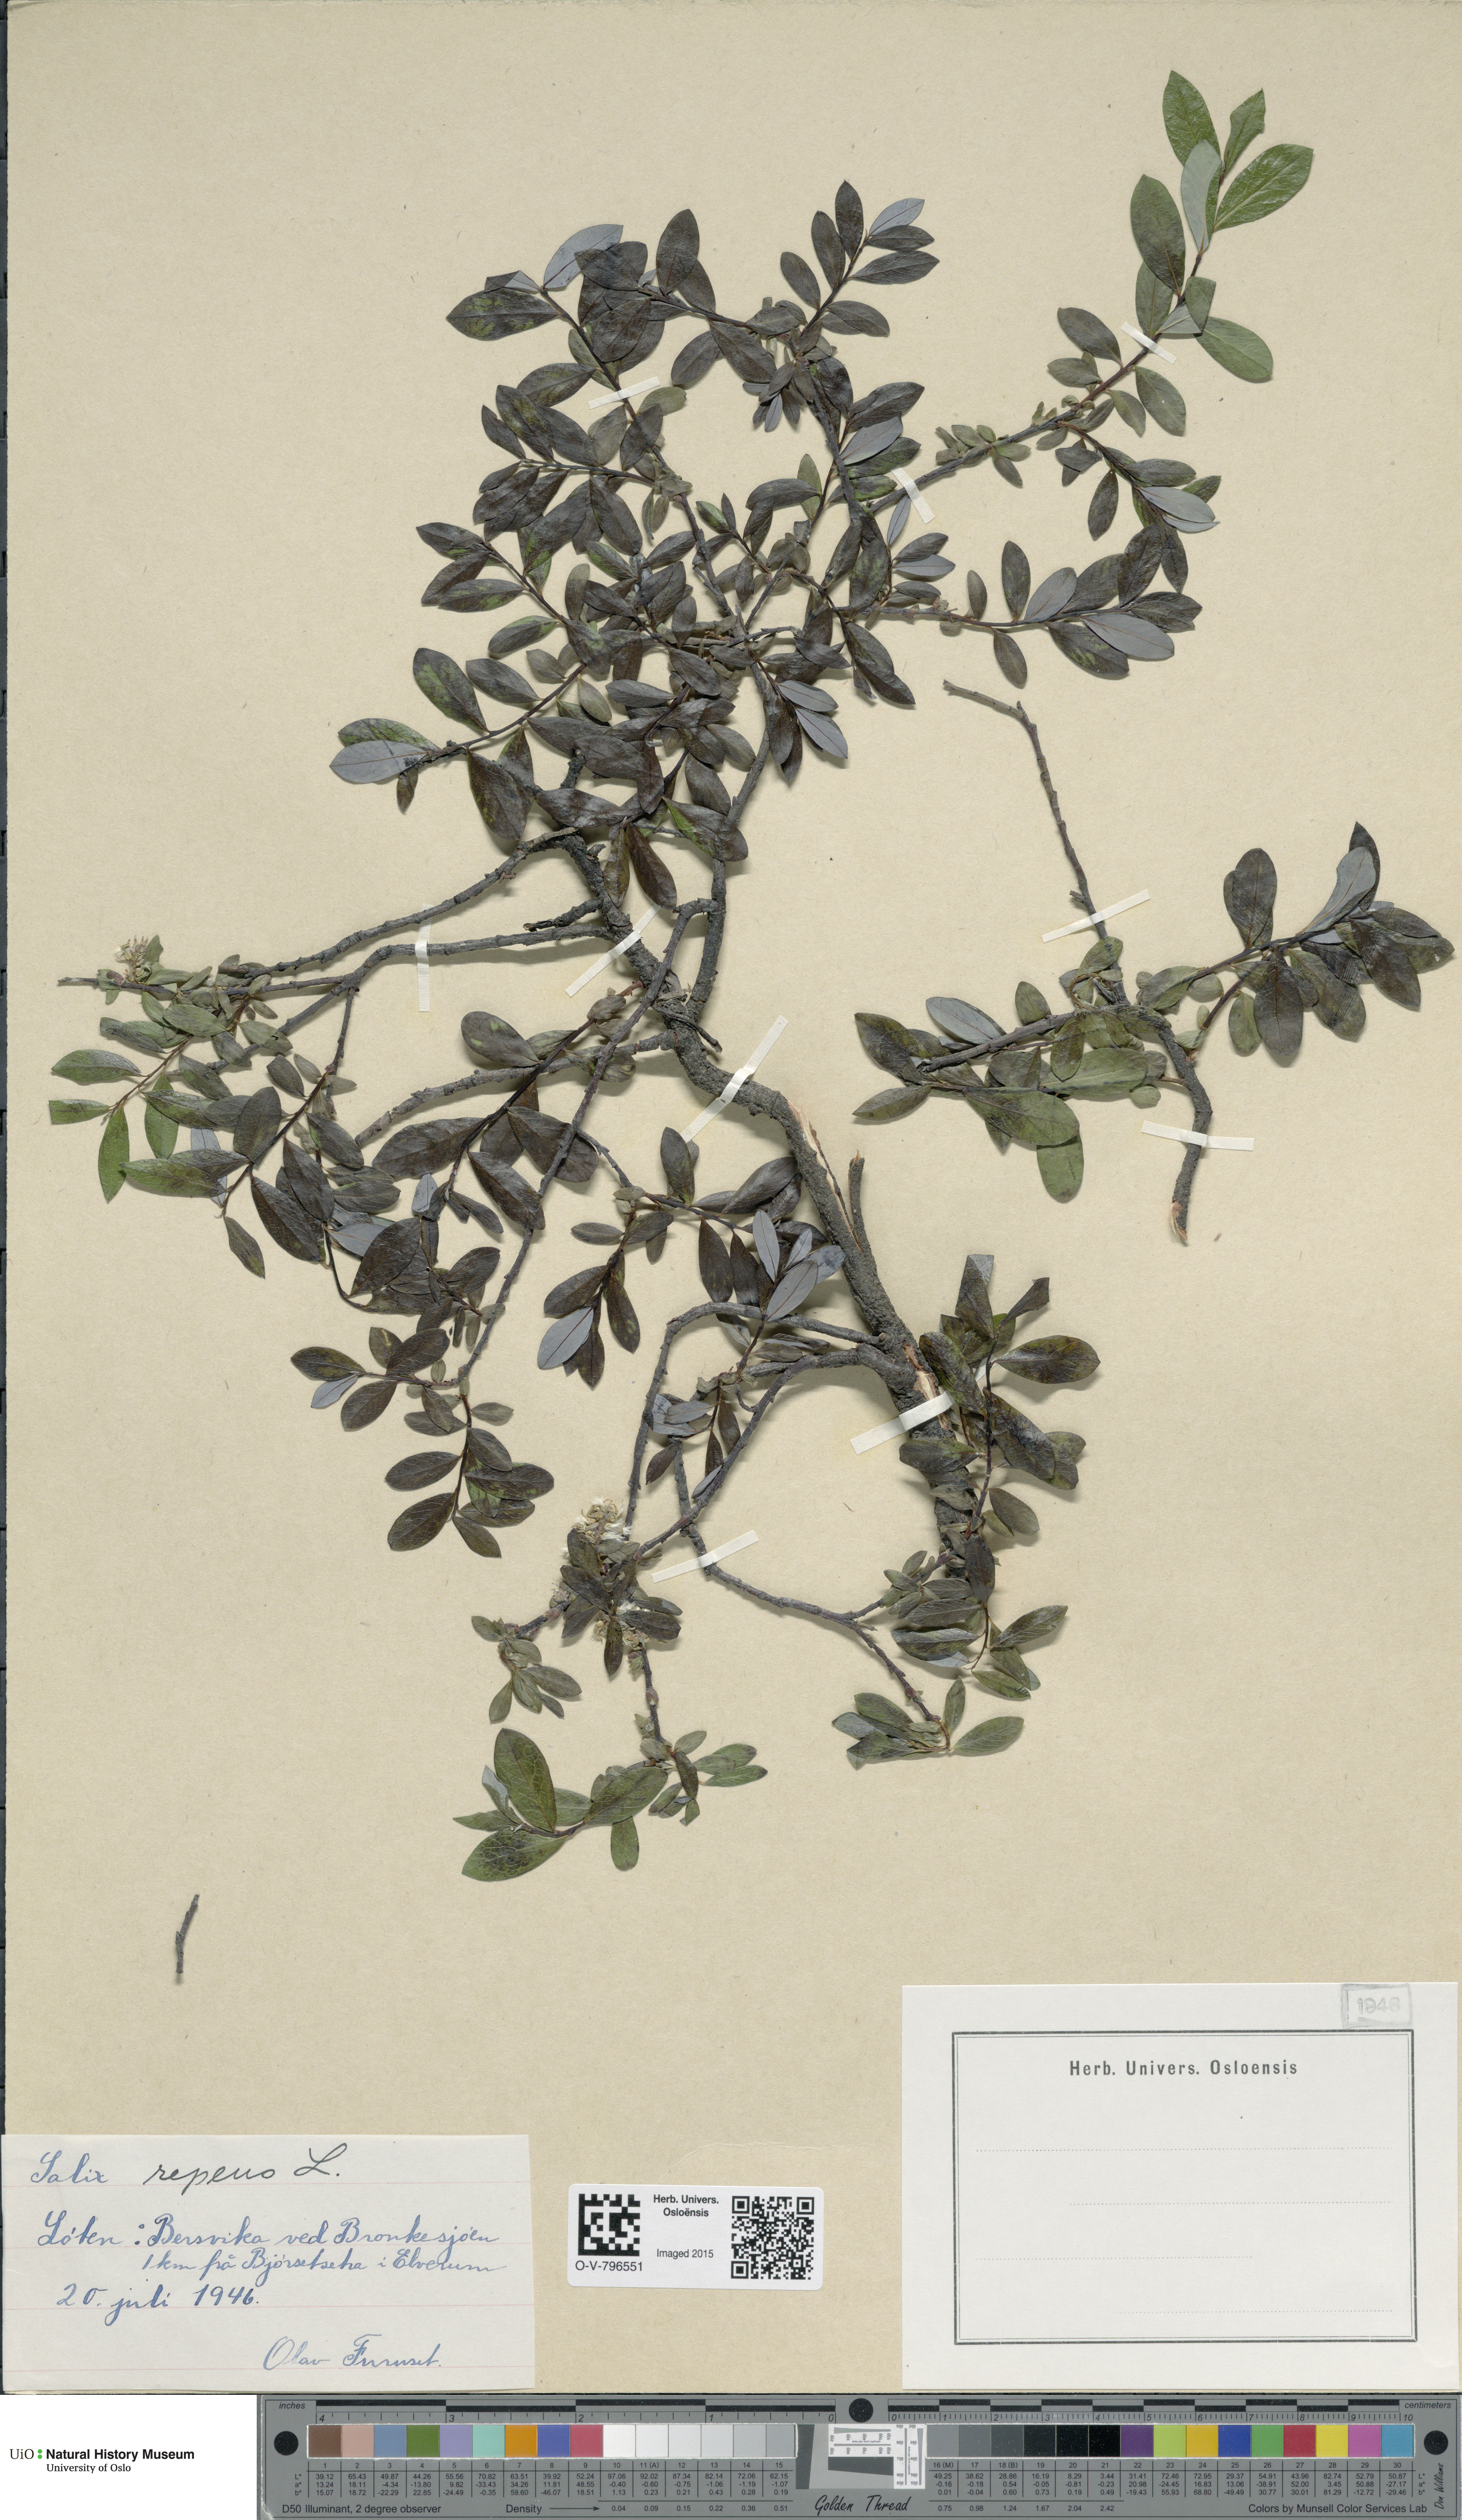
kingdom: Plantae
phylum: Tracheophyta
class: Magnoliopsida
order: Malpighiales
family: Salicaceae
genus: Salix
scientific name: Salix repens
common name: Creeping willow
